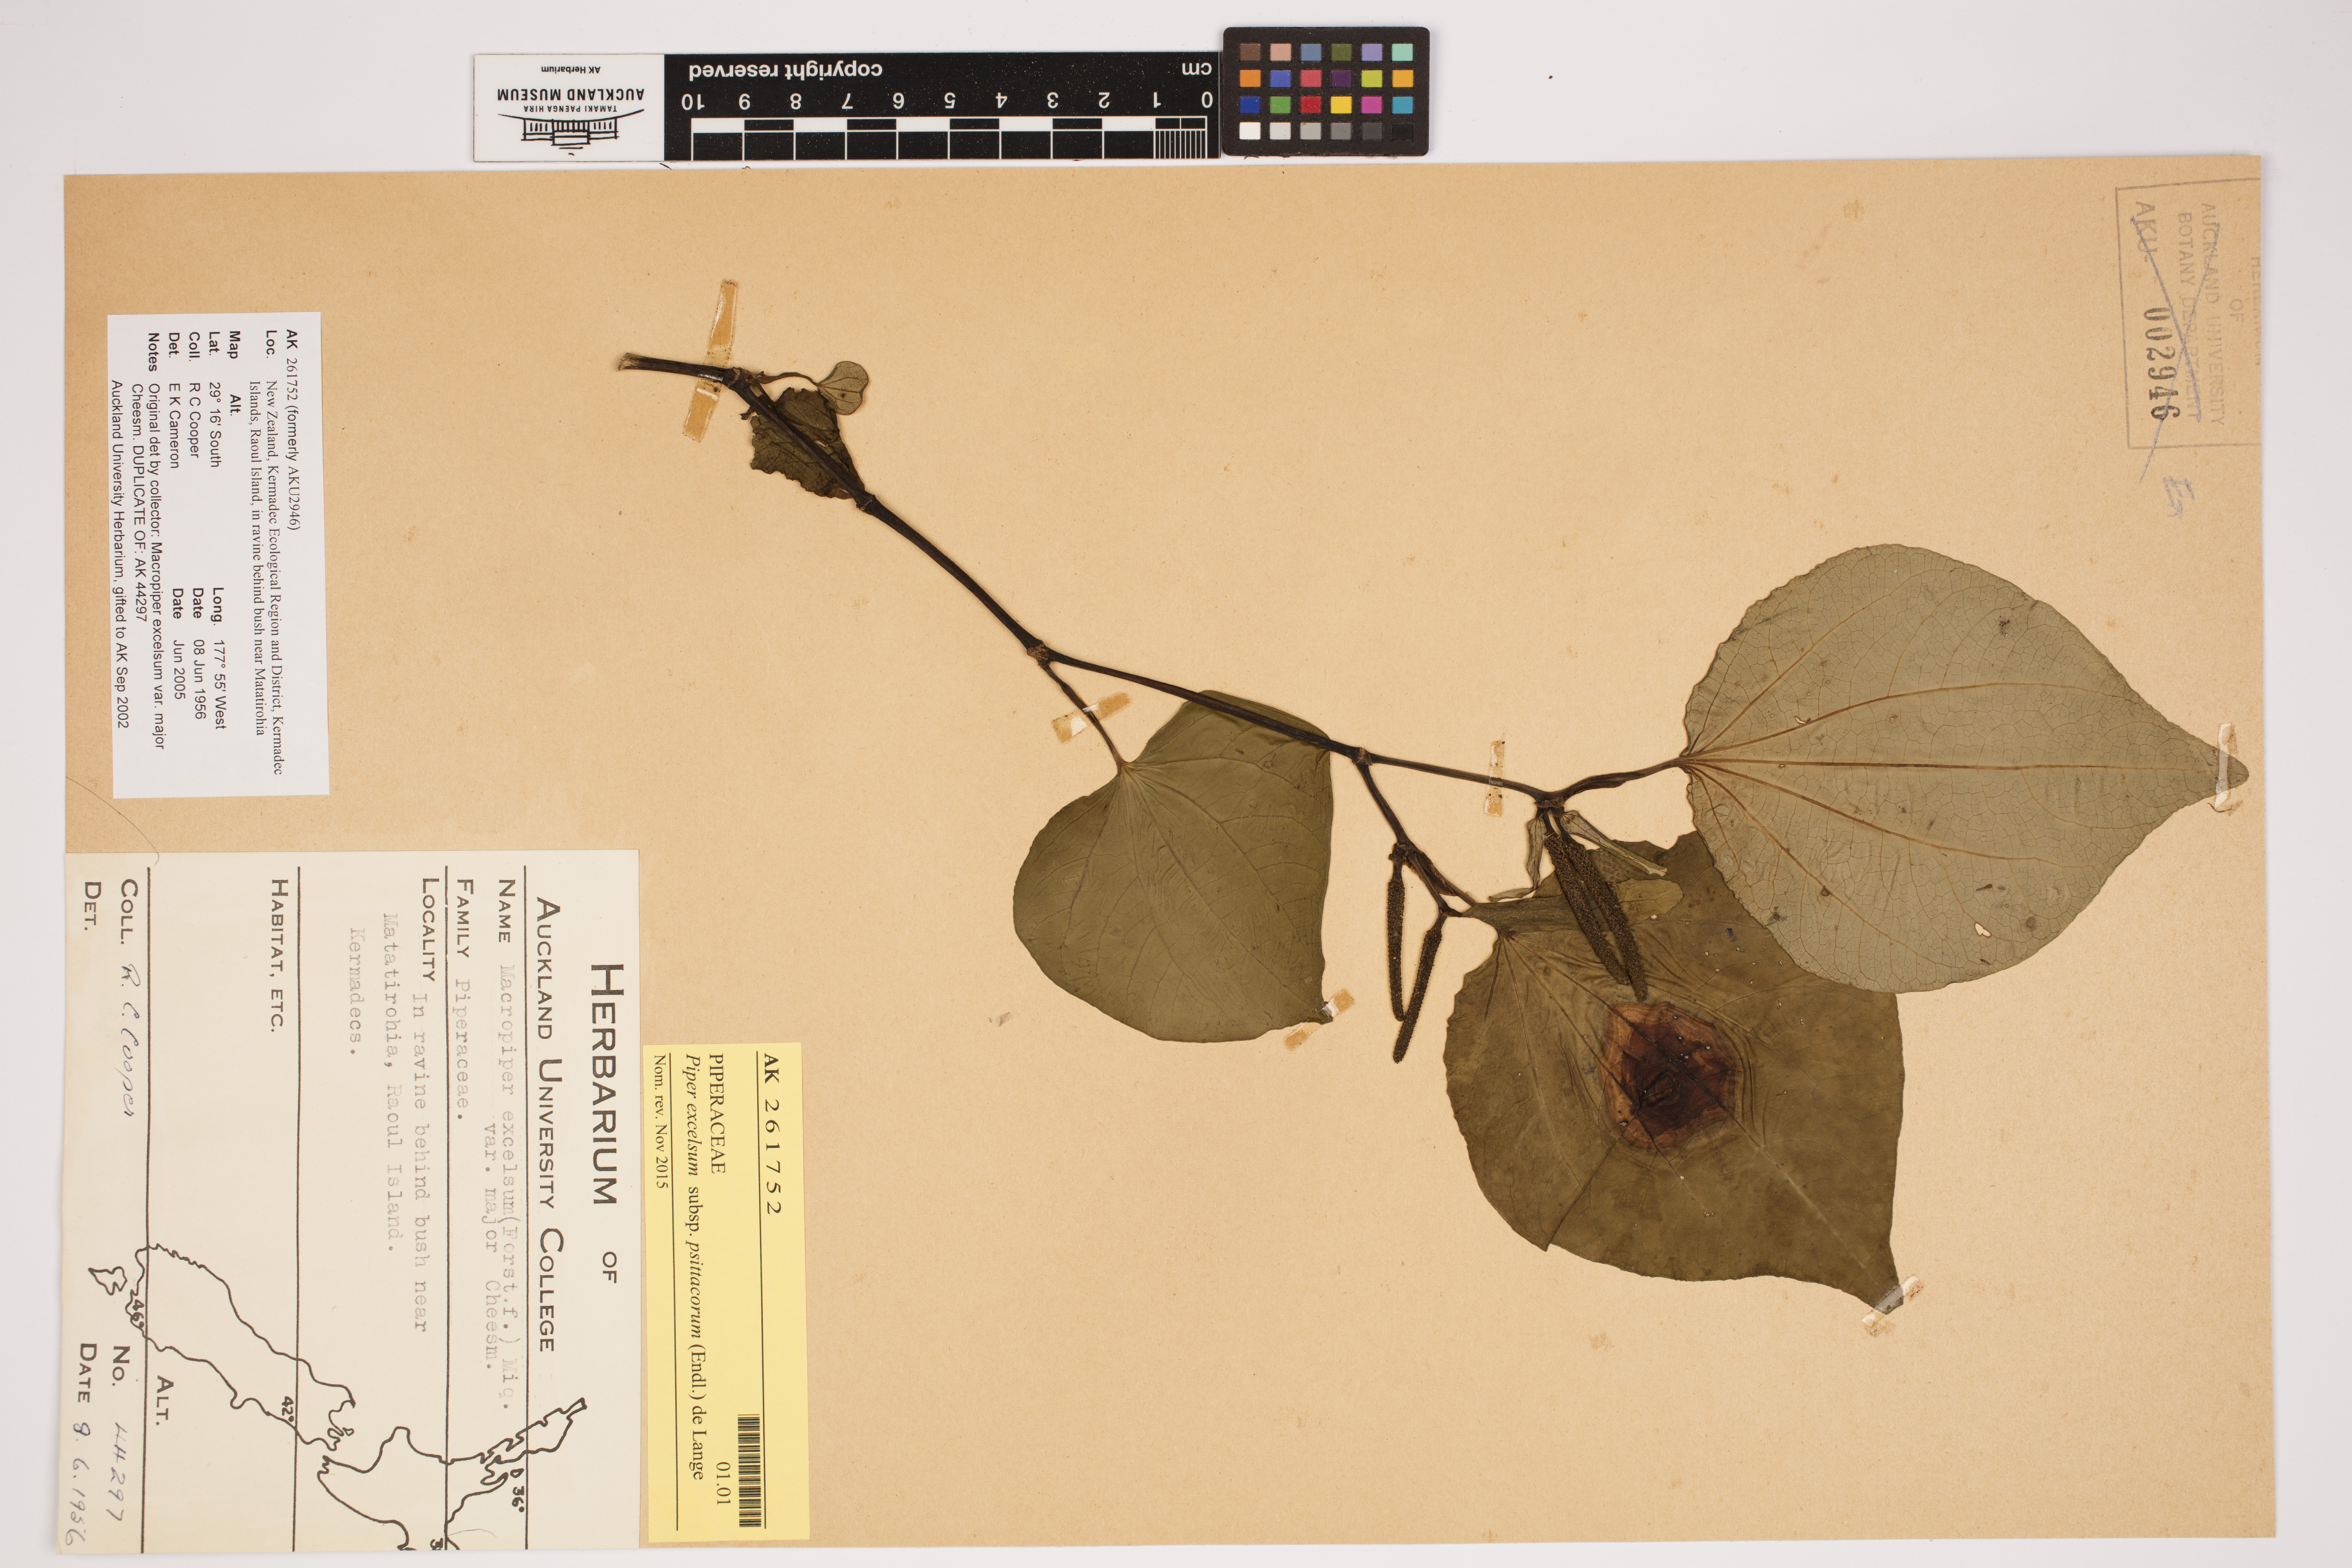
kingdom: Plantae
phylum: Tracheophyta
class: Magnoliopsida
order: Piperales
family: Piperaceae
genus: Macropiper
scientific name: Macropiper excelsum
